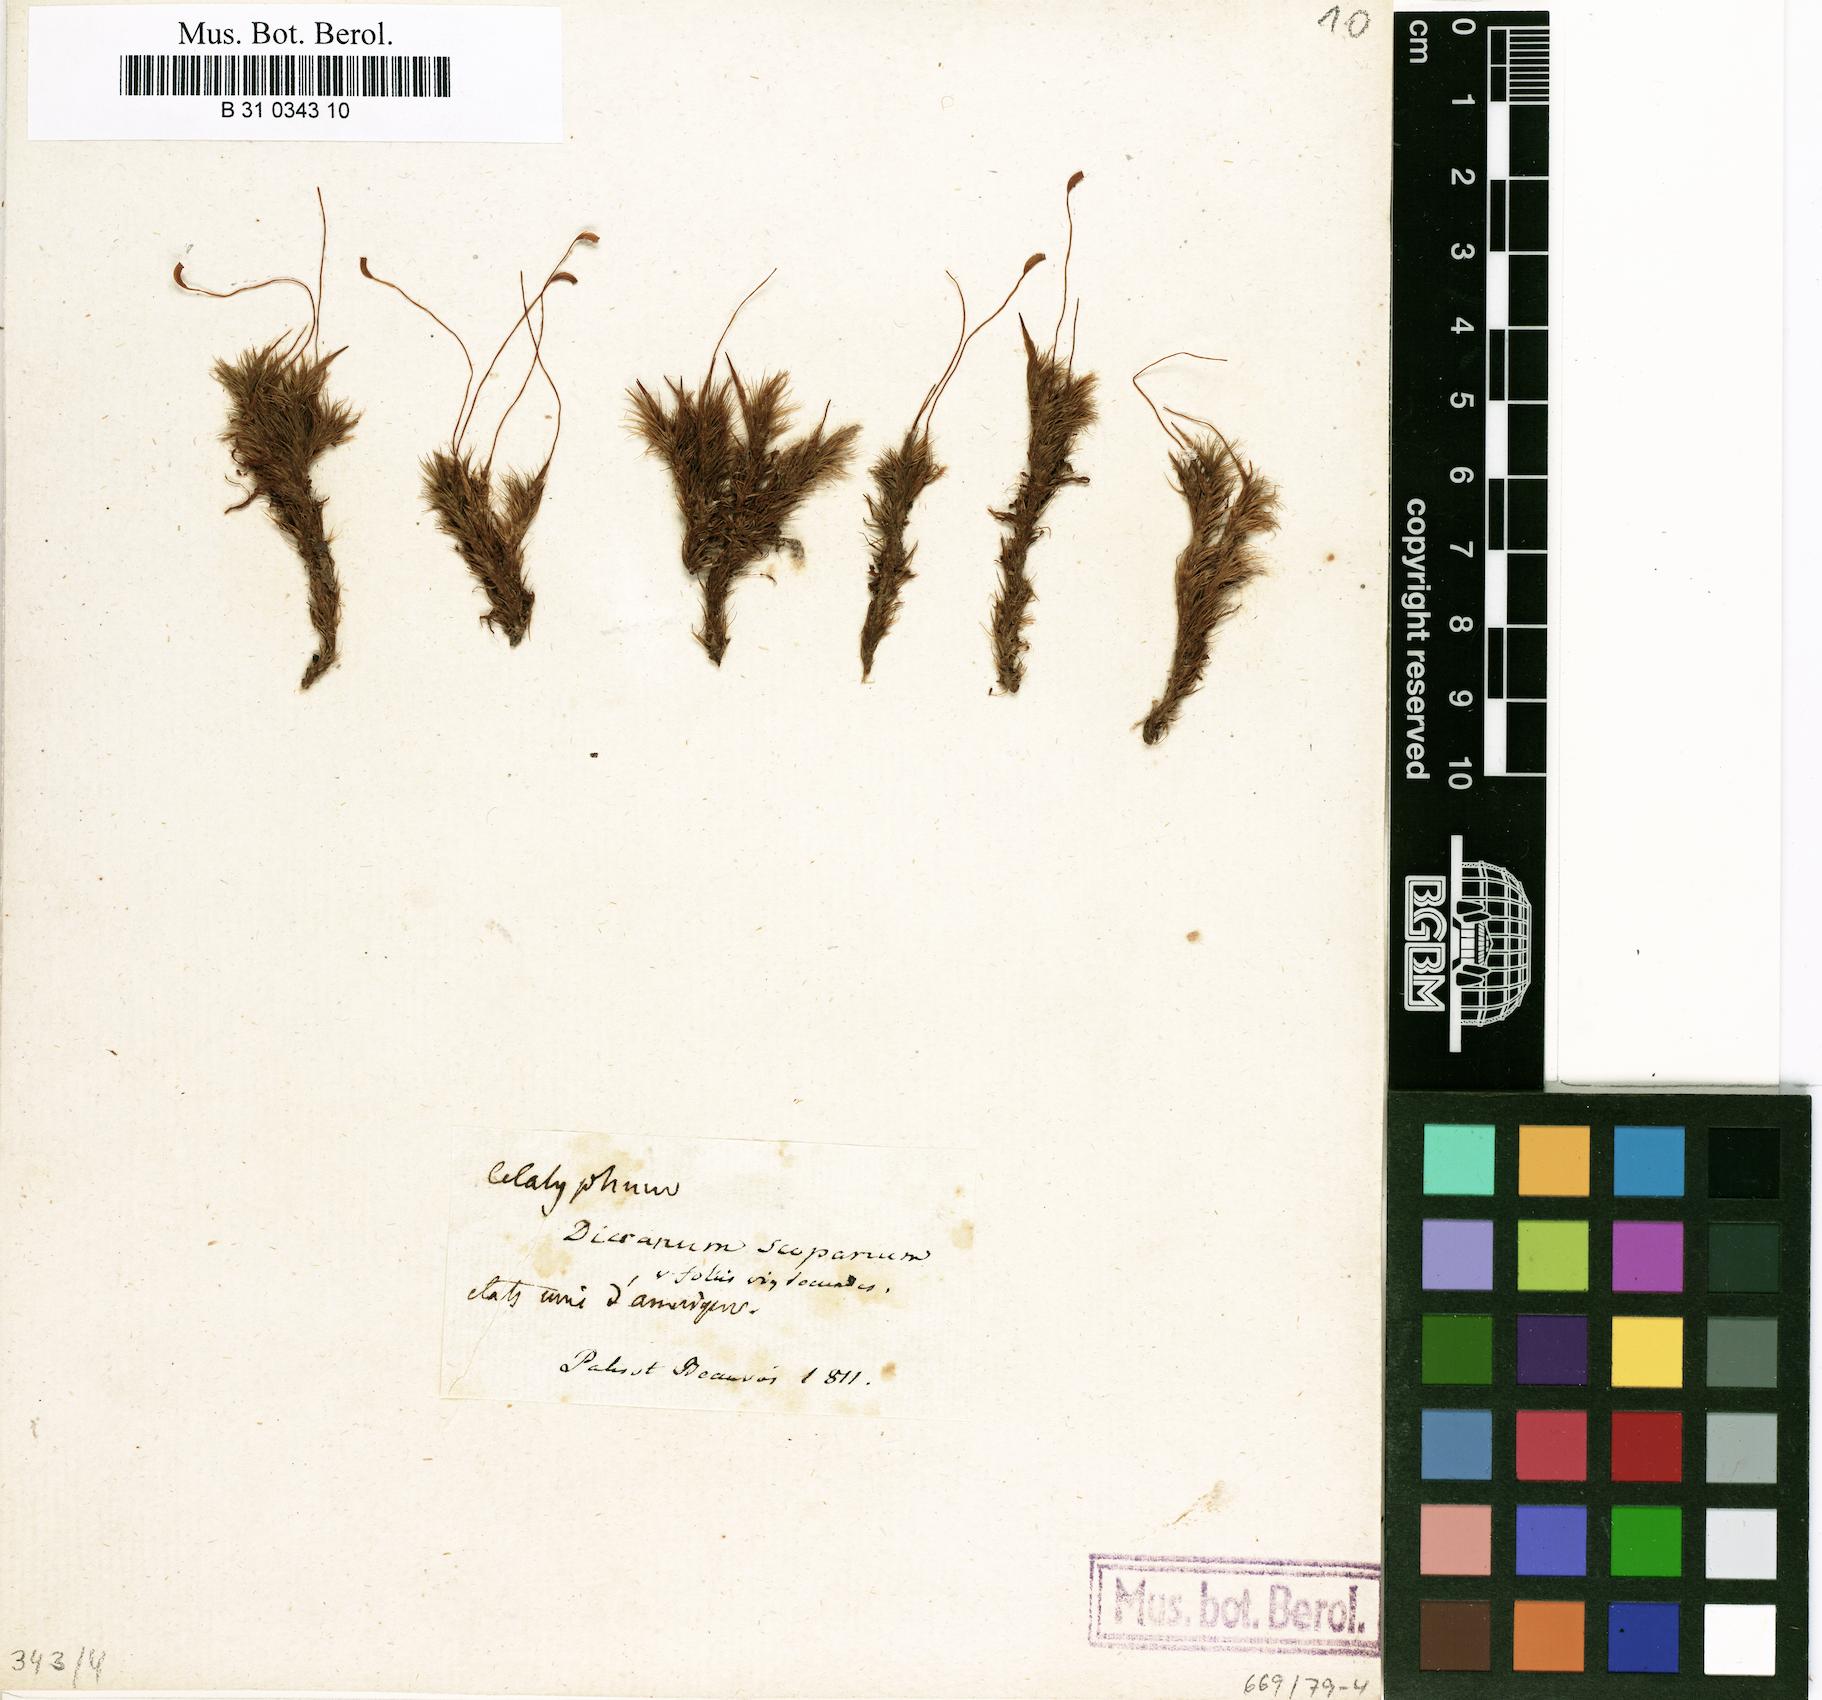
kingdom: Plantae
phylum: Bryophyta
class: Bryopsida
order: Dicranales
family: Dicranaceae
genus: Dicranum
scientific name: Dicranum scoparium
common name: Broom fork-moss
